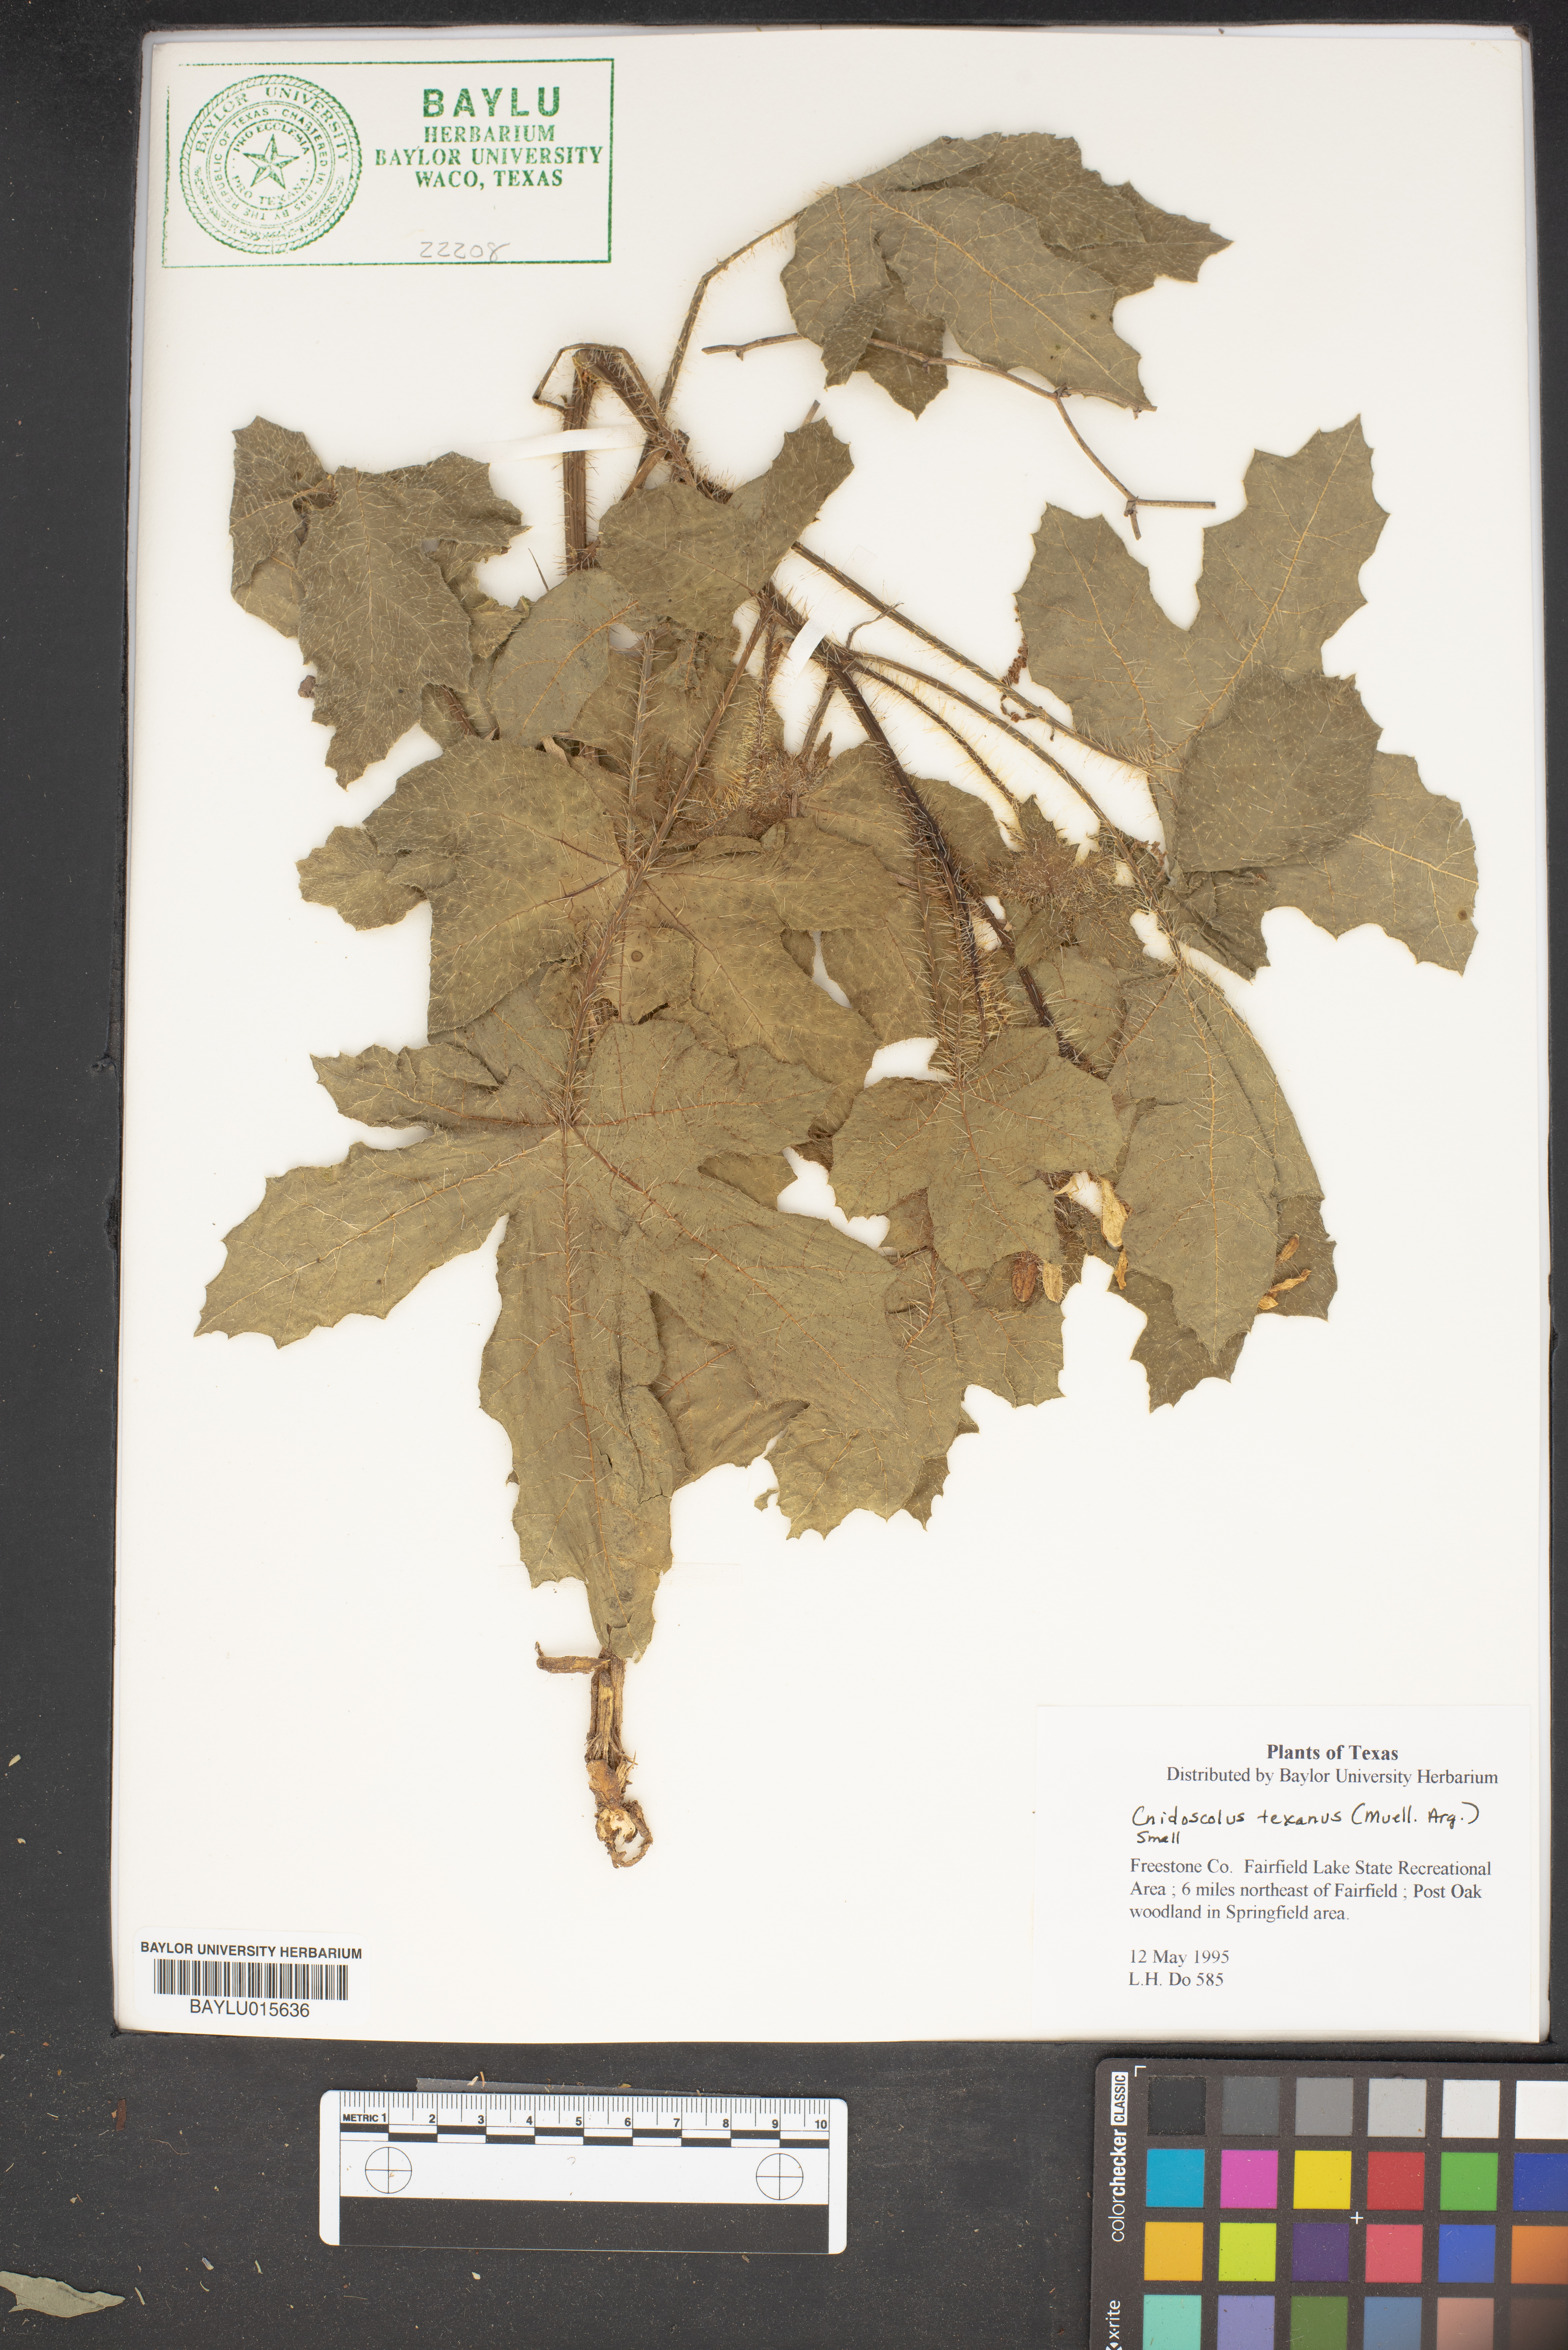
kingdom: Plantae
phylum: Tracheophyta
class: Magnoliopsida
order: Malpighiales
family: Euphorbiaceae
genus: Cnidoscolus
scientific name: Cnidoscolus texanus
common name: Texas bull-nettle
